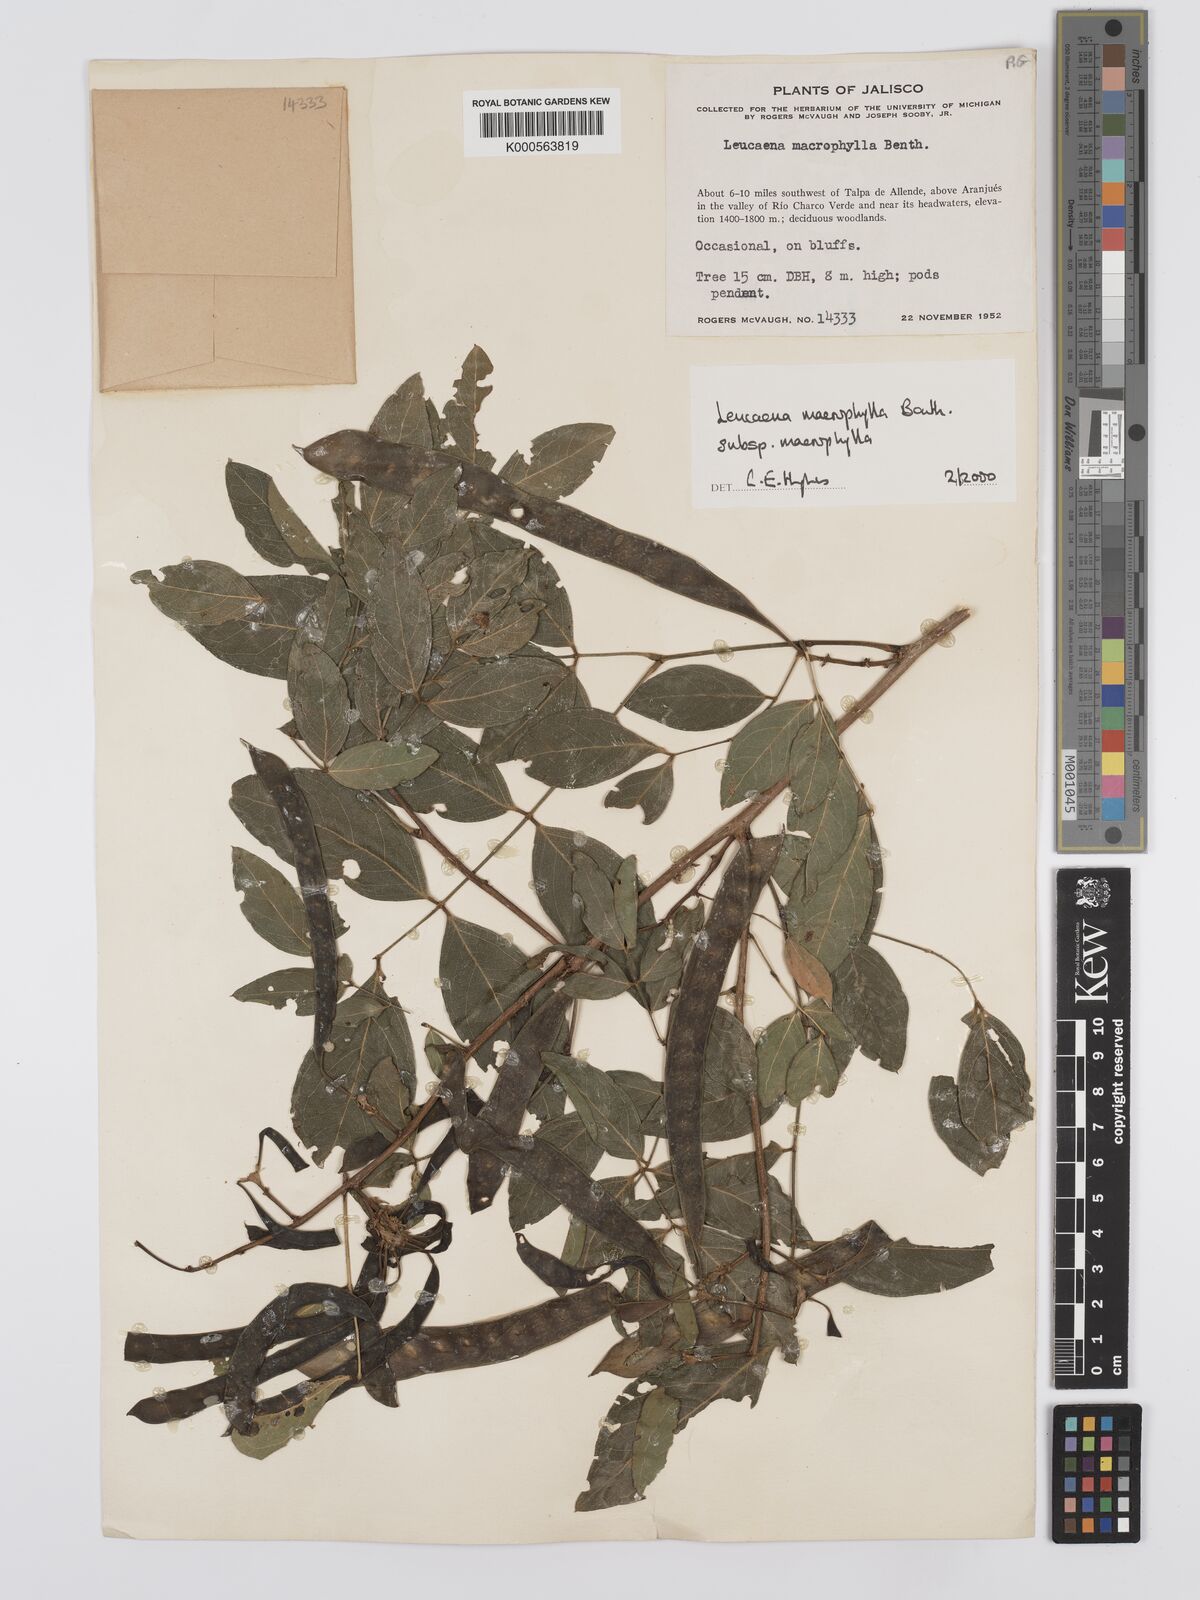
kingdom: Plantae
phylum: Tracheophyta
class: Magnoliopsida
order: Fabales
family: Fabaceae
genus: Leucaena
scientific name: Leucaena macrophylla
